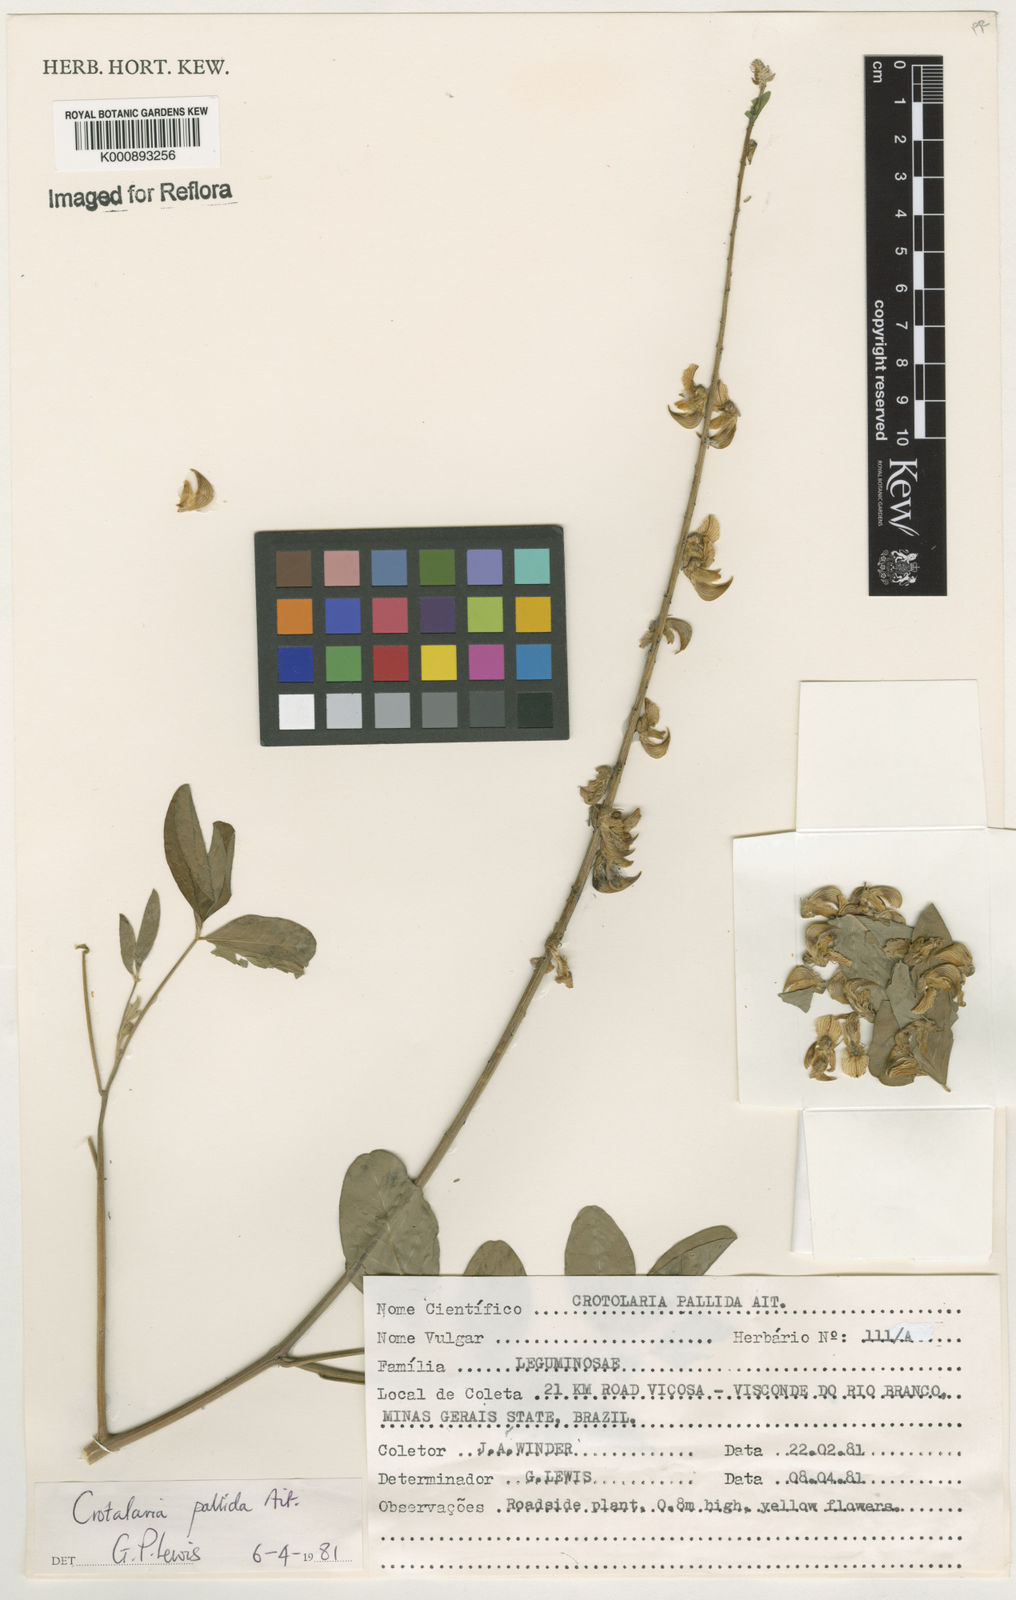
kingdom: Plantae
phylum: Tracheophyta
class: Magnoliopsida
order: Fabales
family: Fabaceae
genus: Crotalaria
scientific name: Crotalaria pallida
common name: Smooth rattlebox
